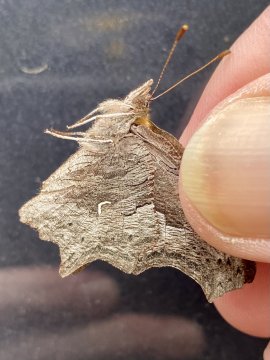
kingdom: Animalia
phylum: Arthropoda
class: Insecta
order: Lepidoptera
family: Nymphalidae
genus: Polygonia
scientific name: Polygonia faunus
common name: Green Comma
